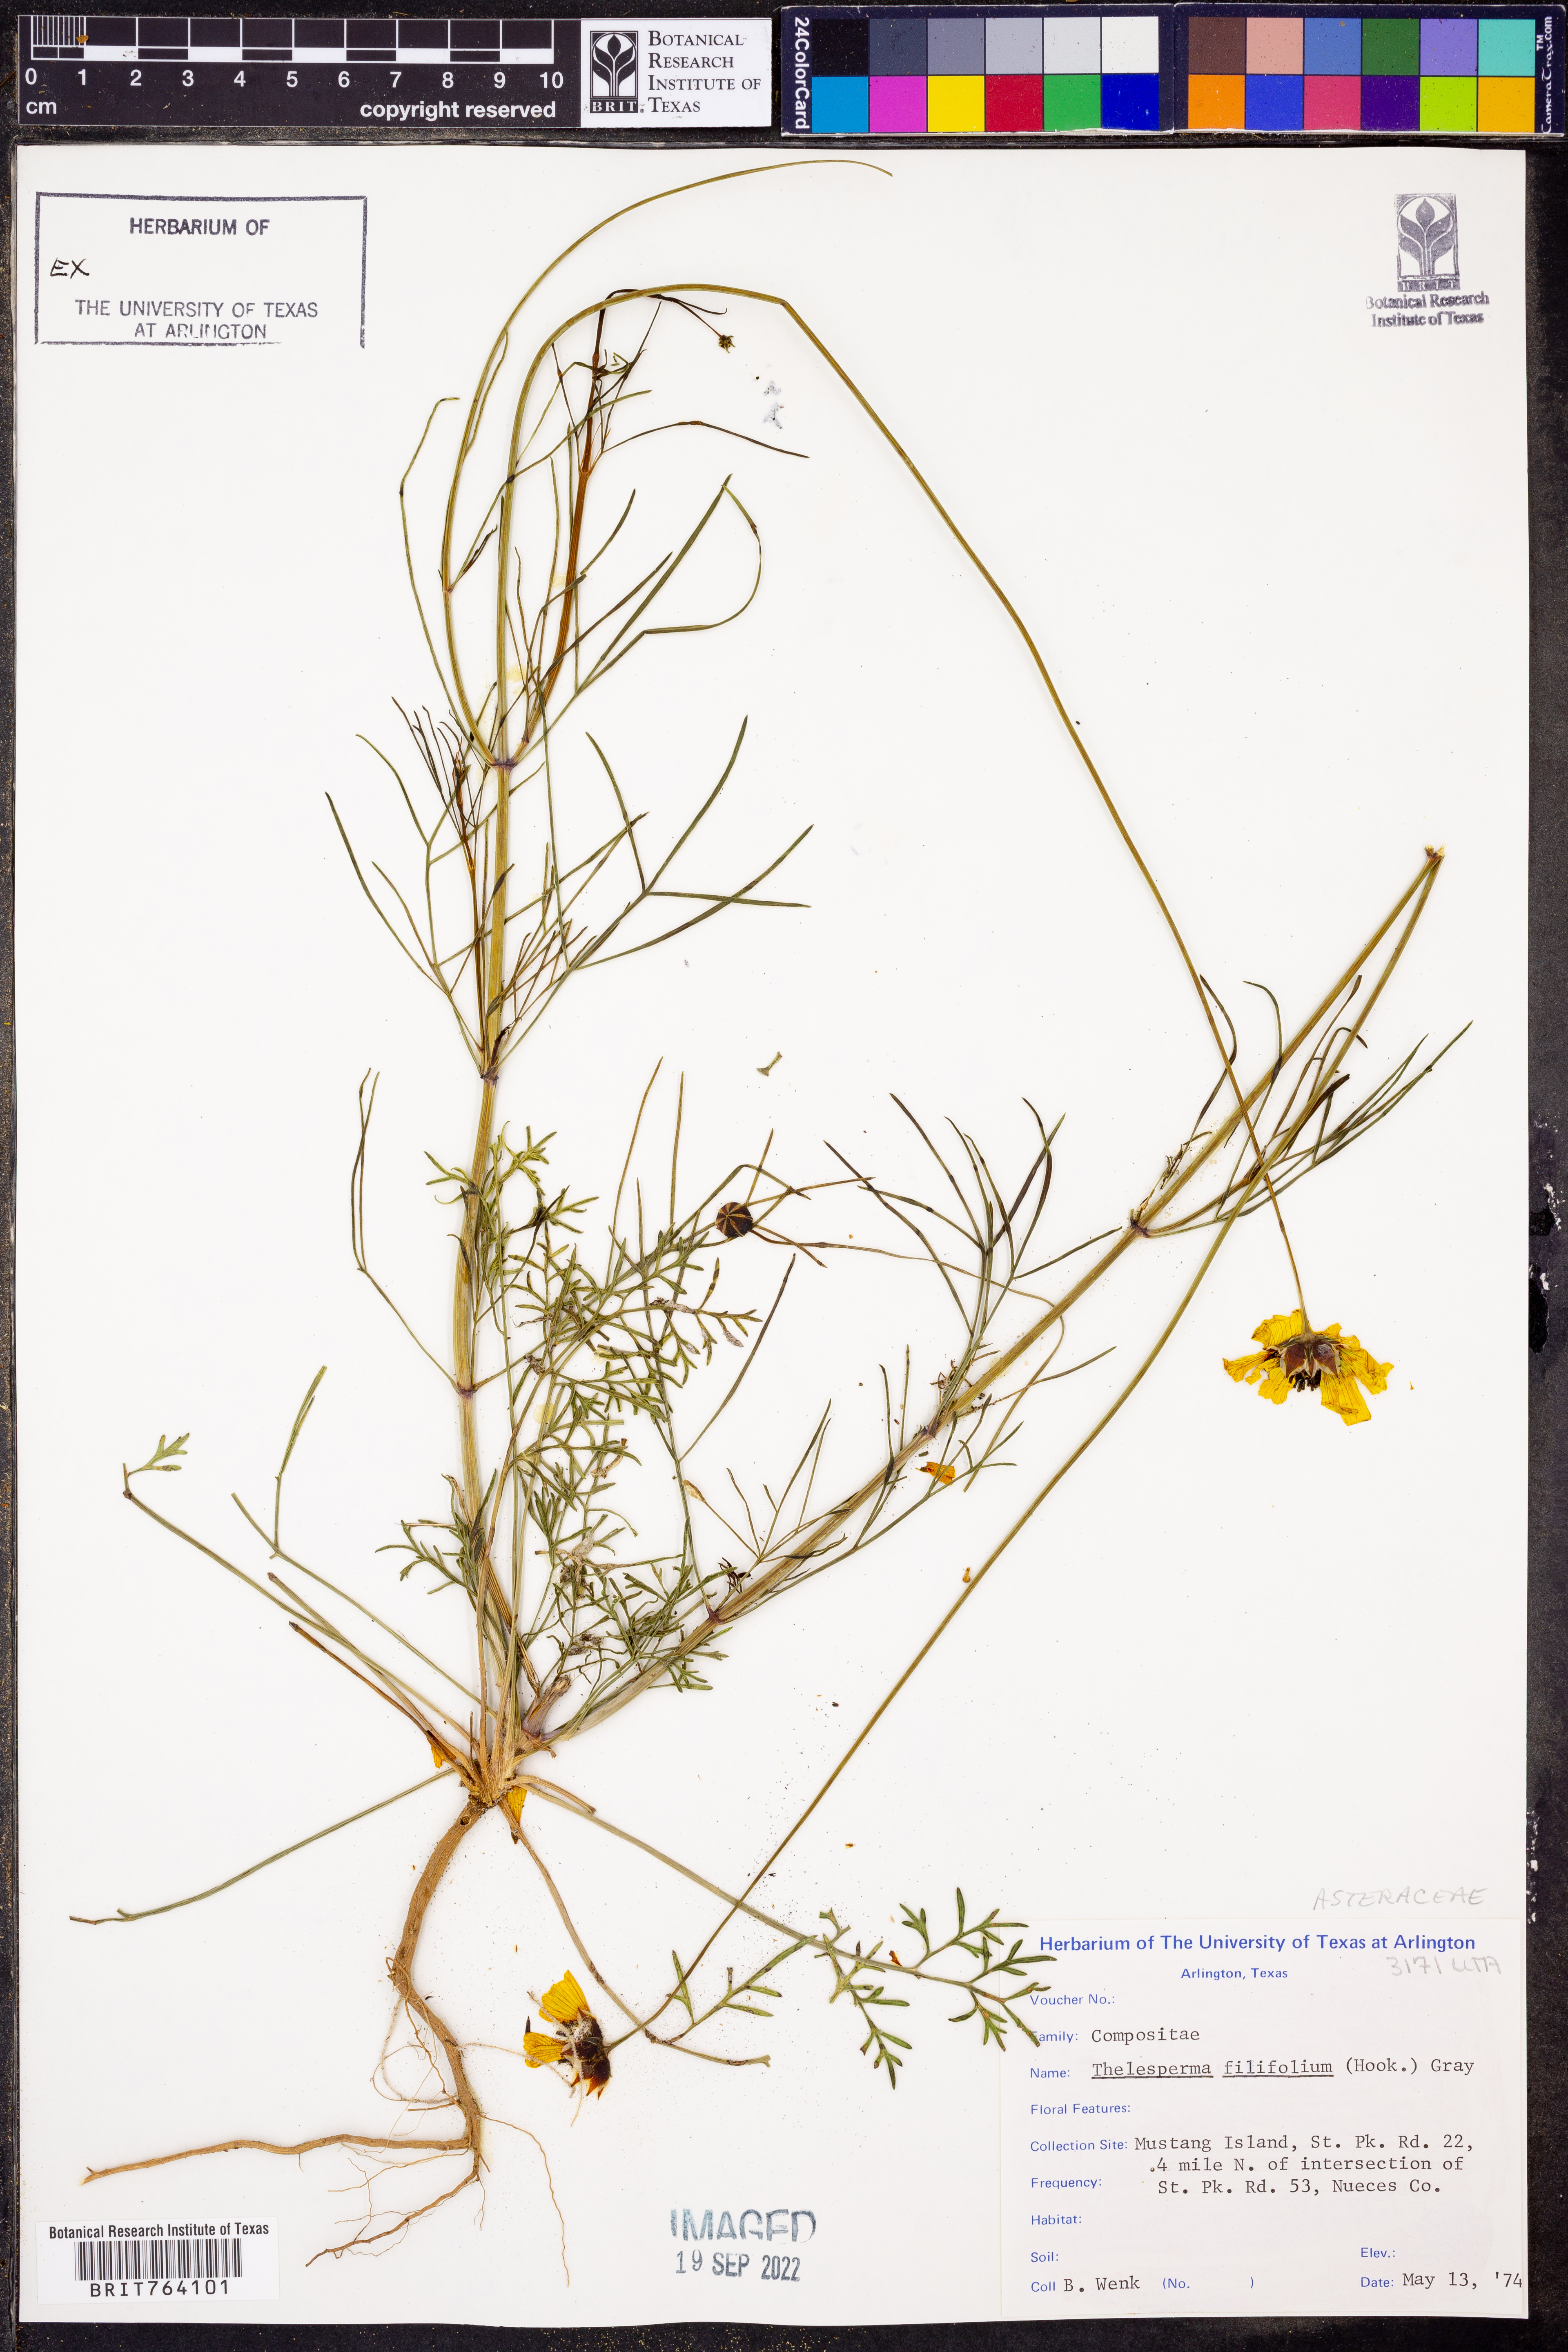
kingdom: Plantae
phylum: Tracheophyta
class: Magnoliopsida
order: Asterales
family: Asteraceae
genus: Thelesperma
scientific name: Thelesperma filifolium
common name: Stiff greenthread
